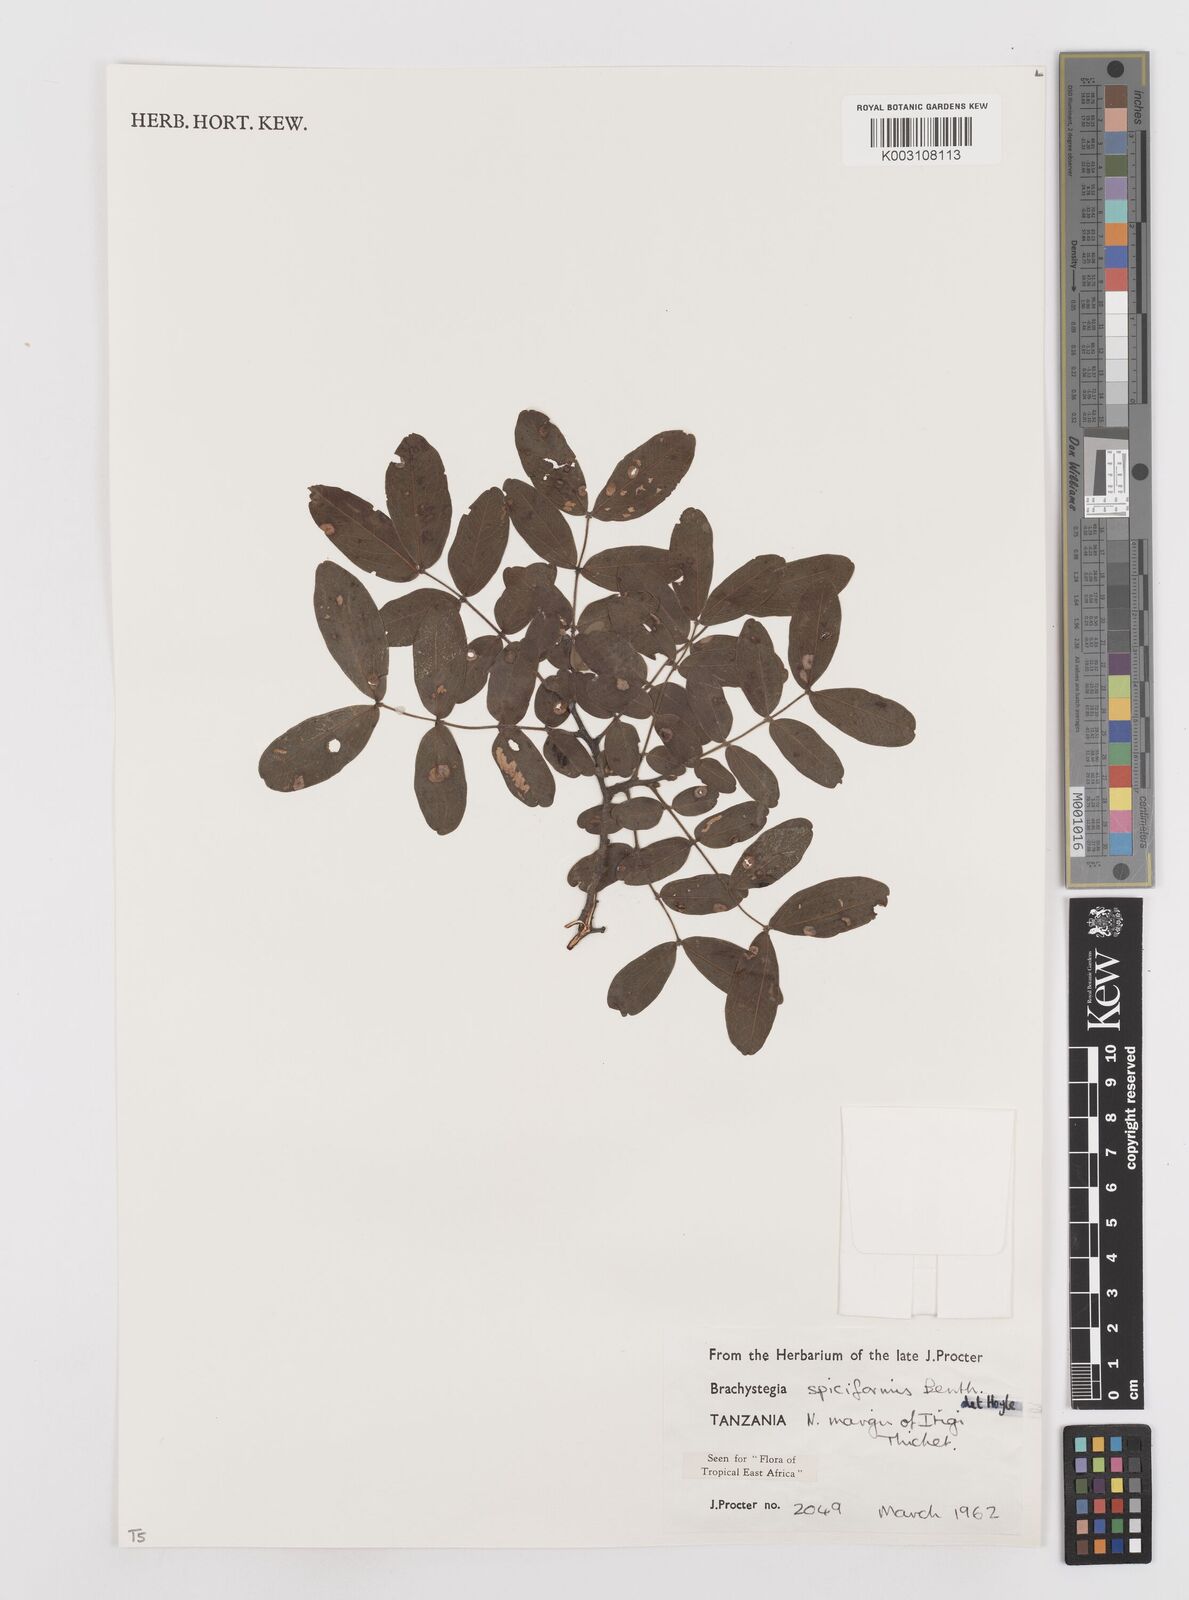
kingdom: Plantae
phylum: Tracheophyta
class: Magnoliopsida
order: Fabales
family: Fabaceae
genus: Brachystegia
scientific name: Brachystegia spiciformis
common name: Zebrawood
